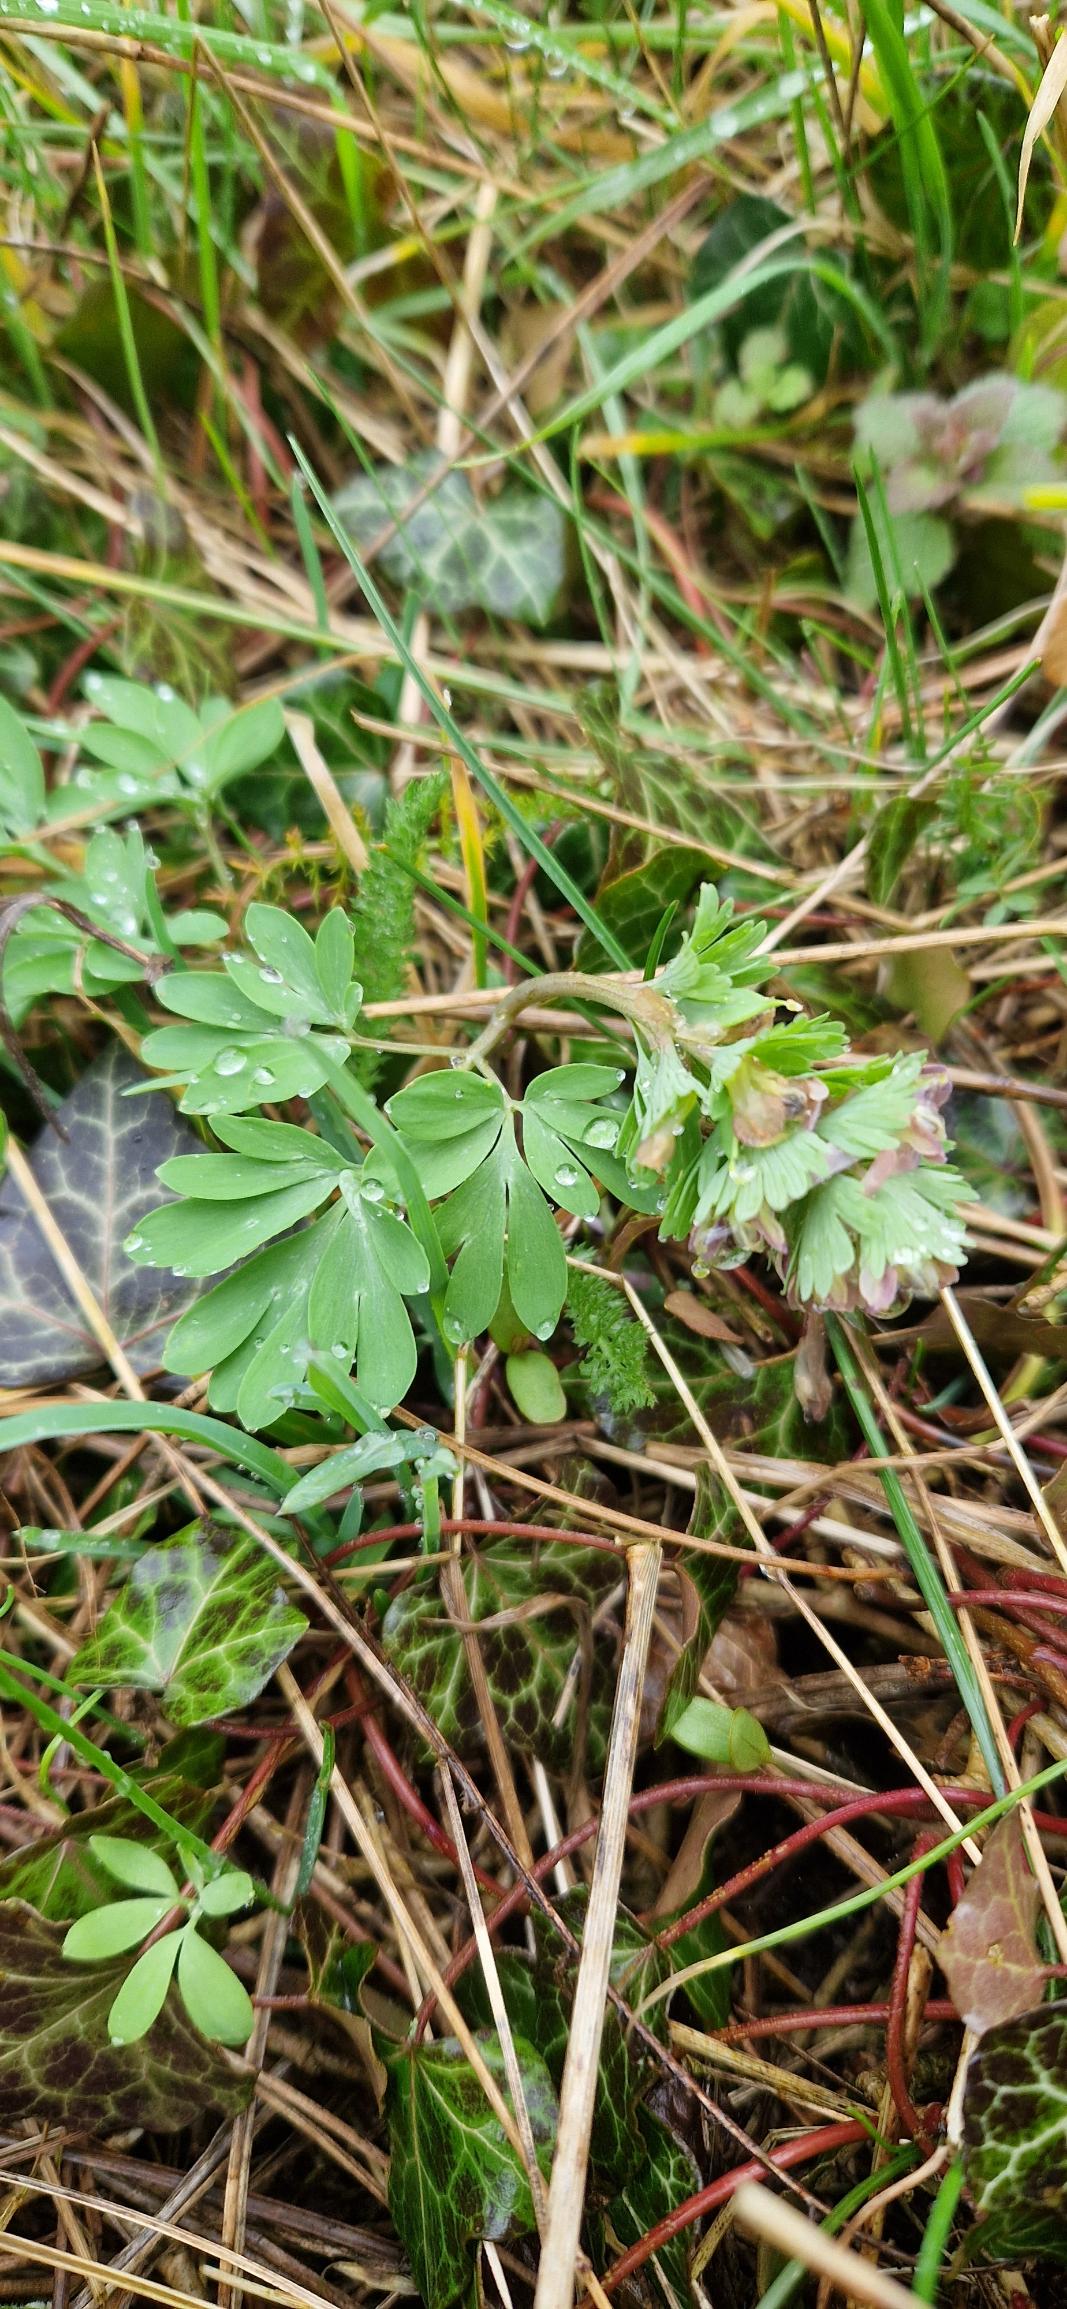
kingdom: Plantae
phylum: Tracheophyta
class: Magnoliopsida
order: Ranunculales
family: Papaveraceae
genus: Corydalis
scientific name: Corydalis pumila
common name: Finger-lærkespore
